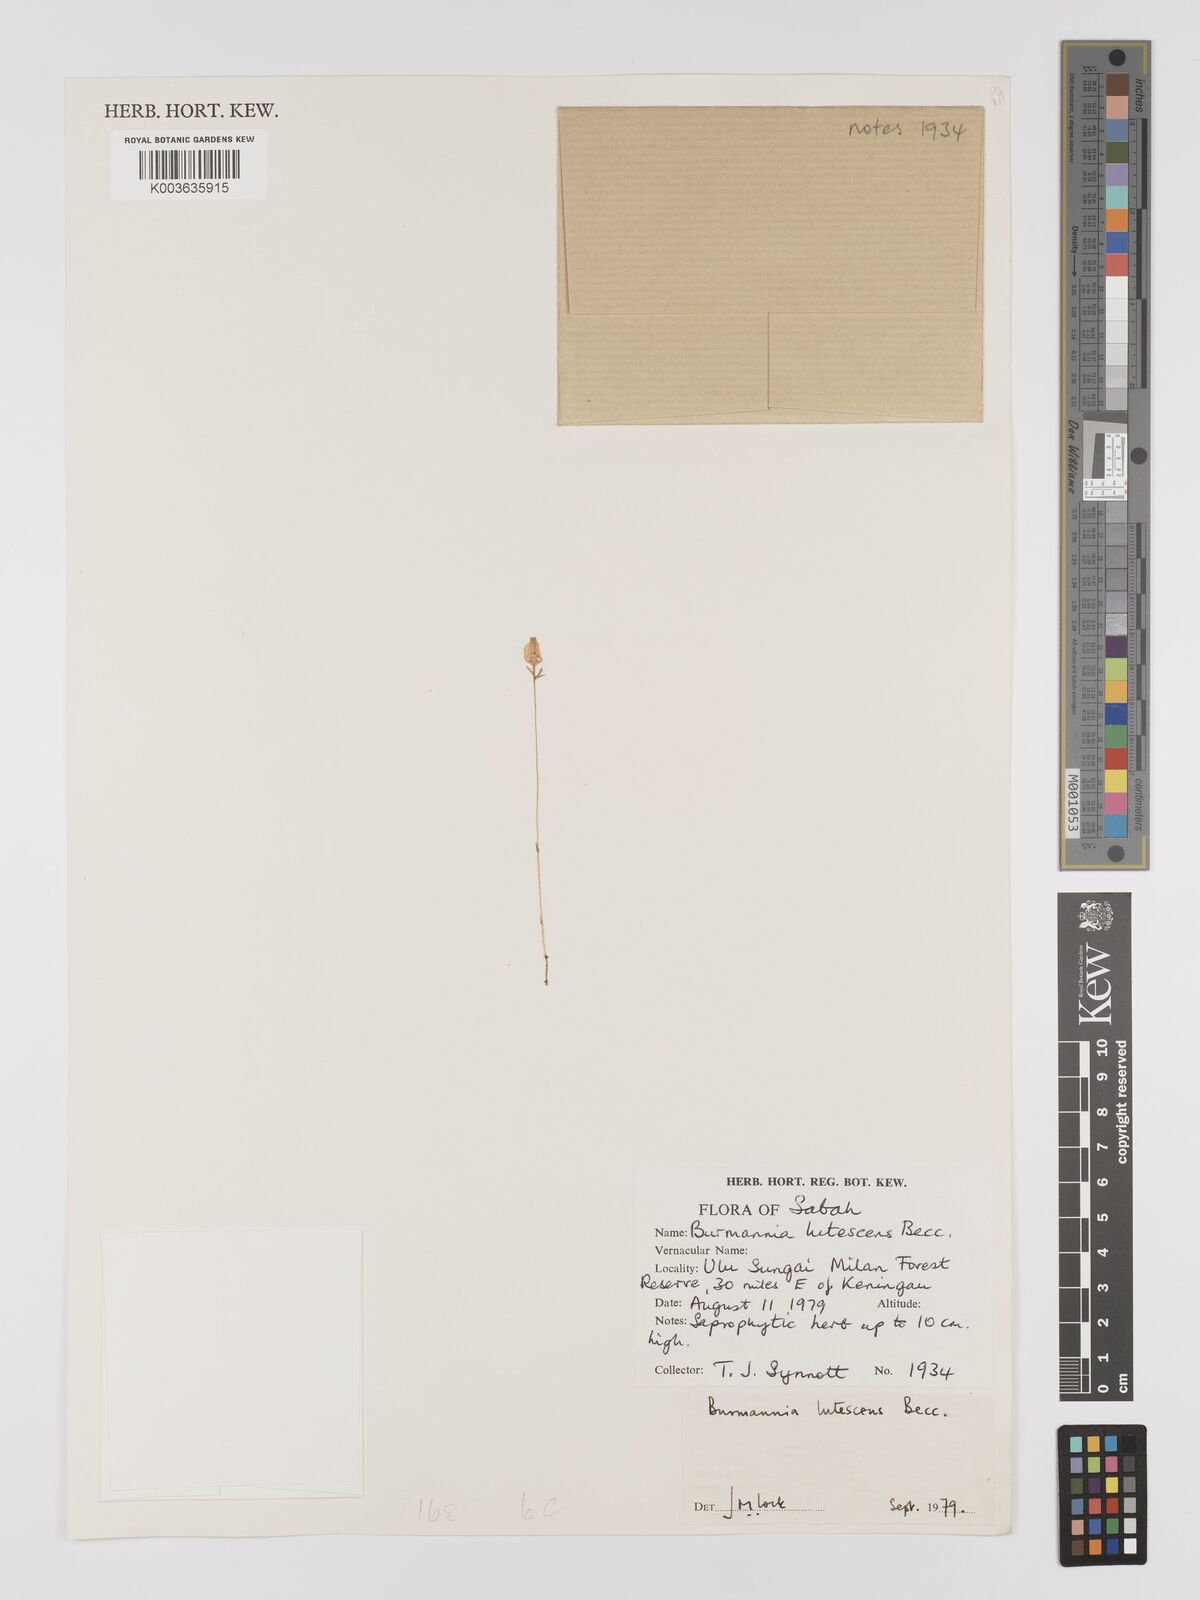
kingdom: Plantae
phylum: Tracheophyta
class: Liliopsida
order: Dioscoreales
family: Burmanniaceae
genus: Burmannia
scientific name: Burmannia lutescens
